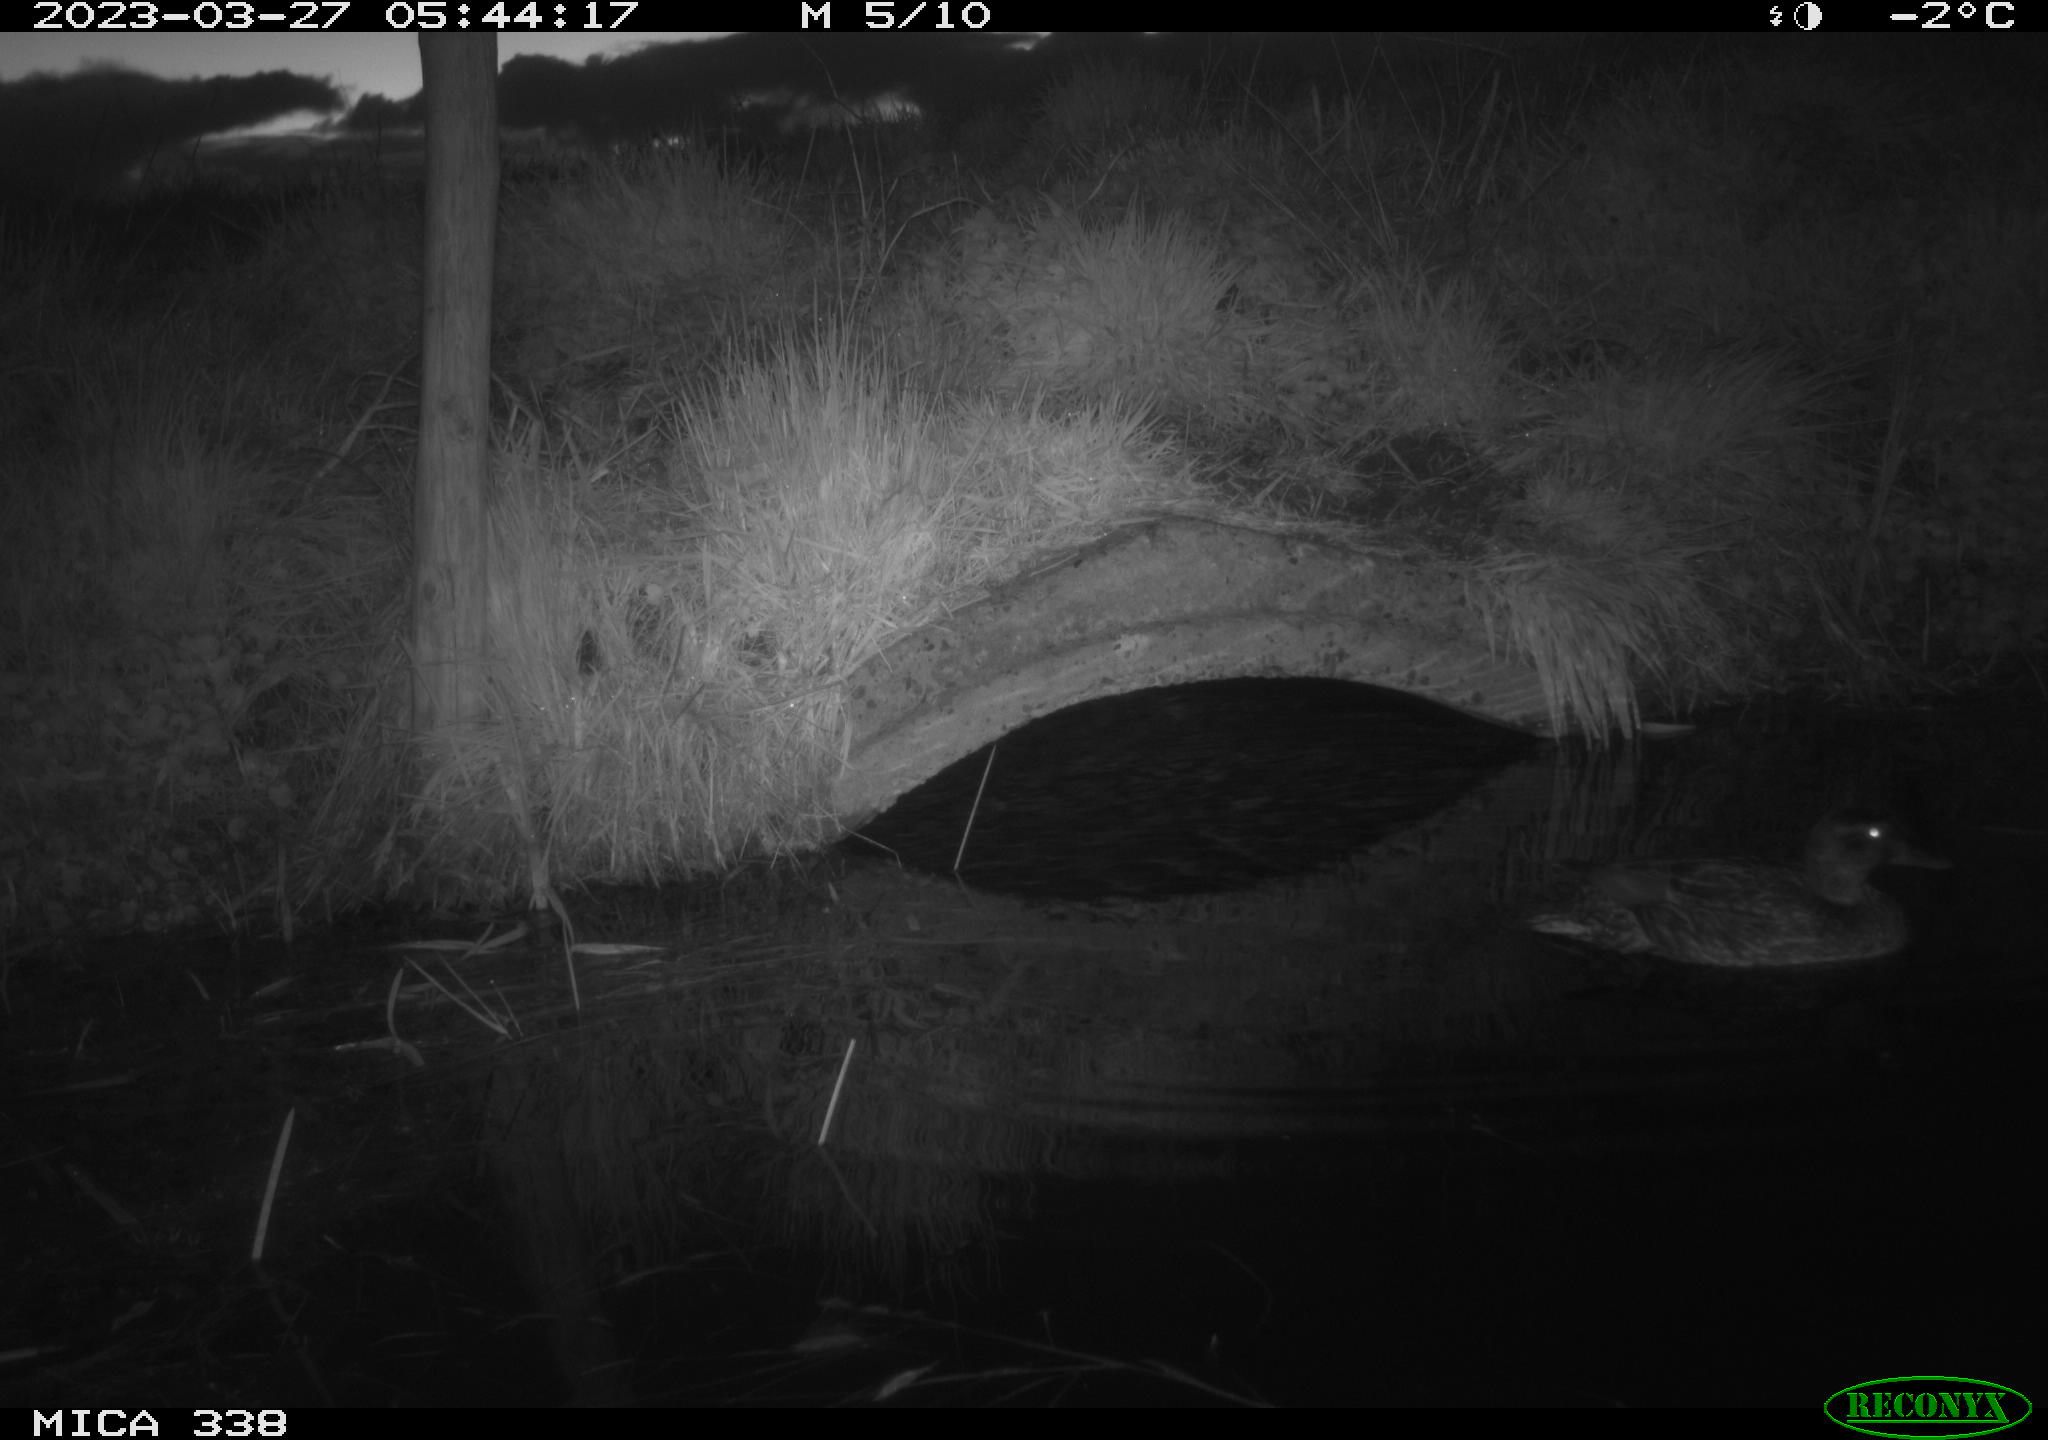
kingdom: Animalia
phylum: Chordata
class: Aves
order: Anseriformes
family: Anatidae
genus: Anas
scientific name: Anas platyrhynchos
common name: Mallard
